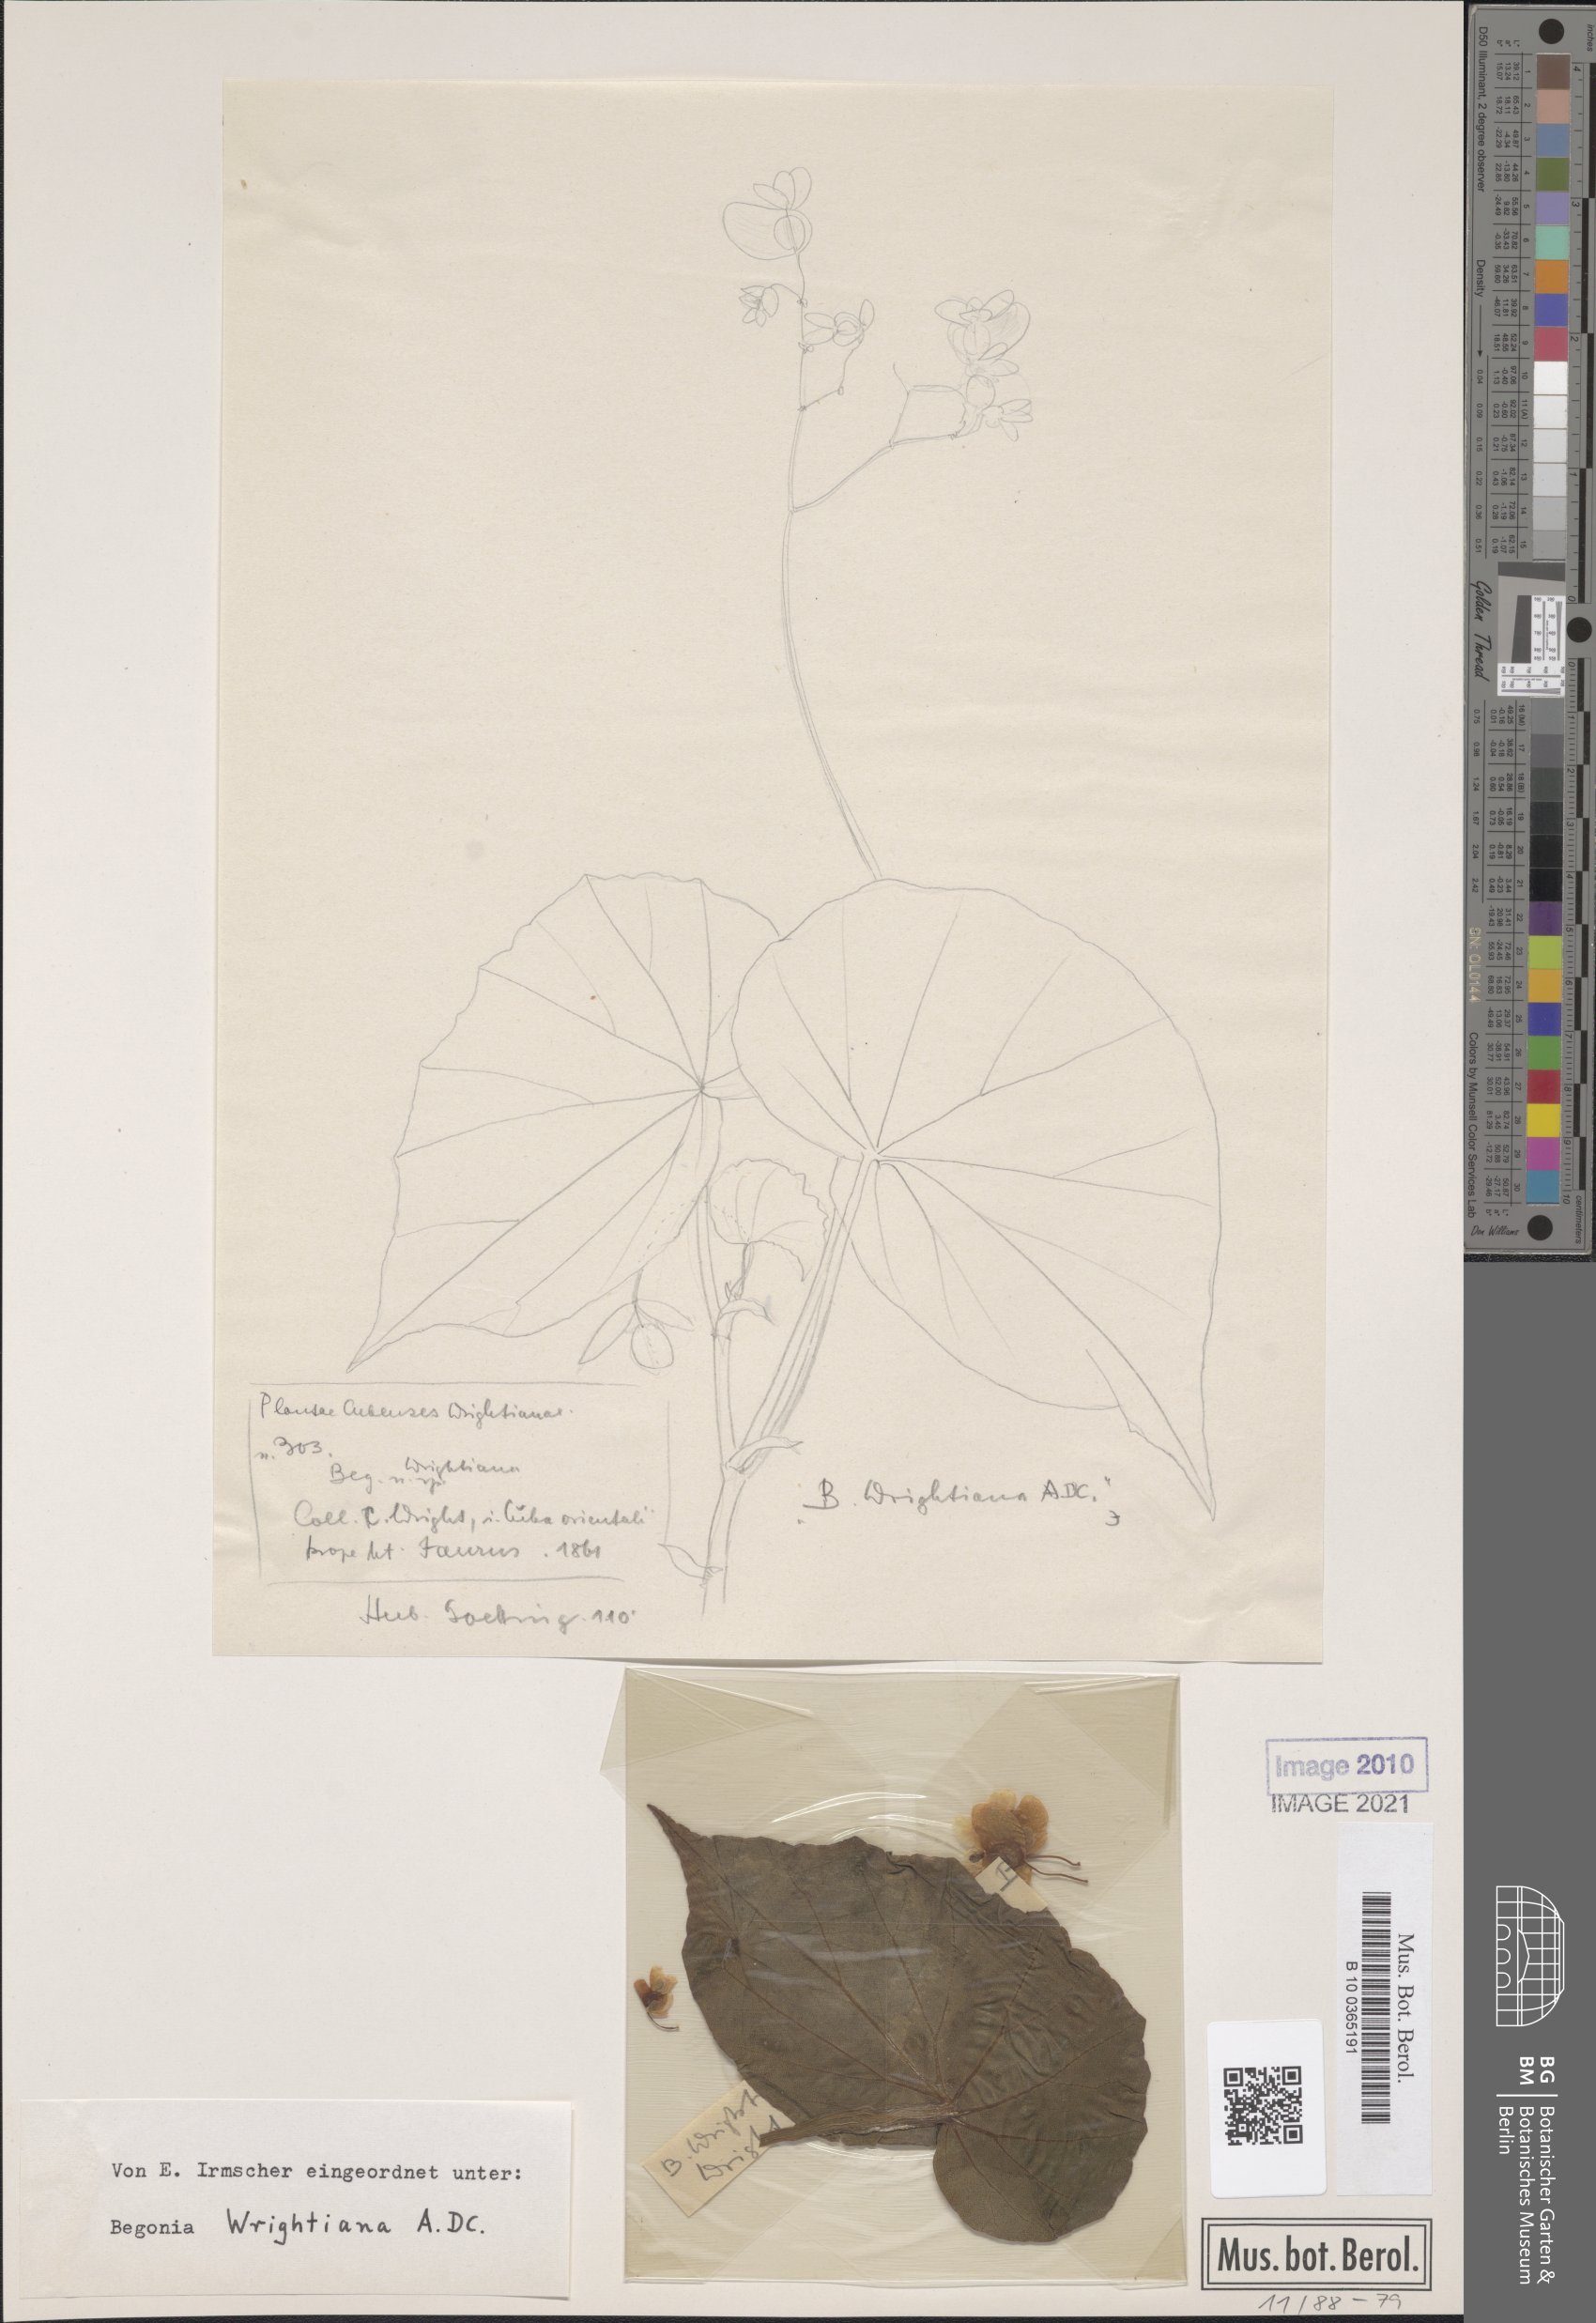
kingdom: Plantae
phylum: Tracheophyta
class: Magnoliopsida
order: Cucurbitales
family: Begoniaceae
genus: Begonia
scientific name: Begonia wrightiana
